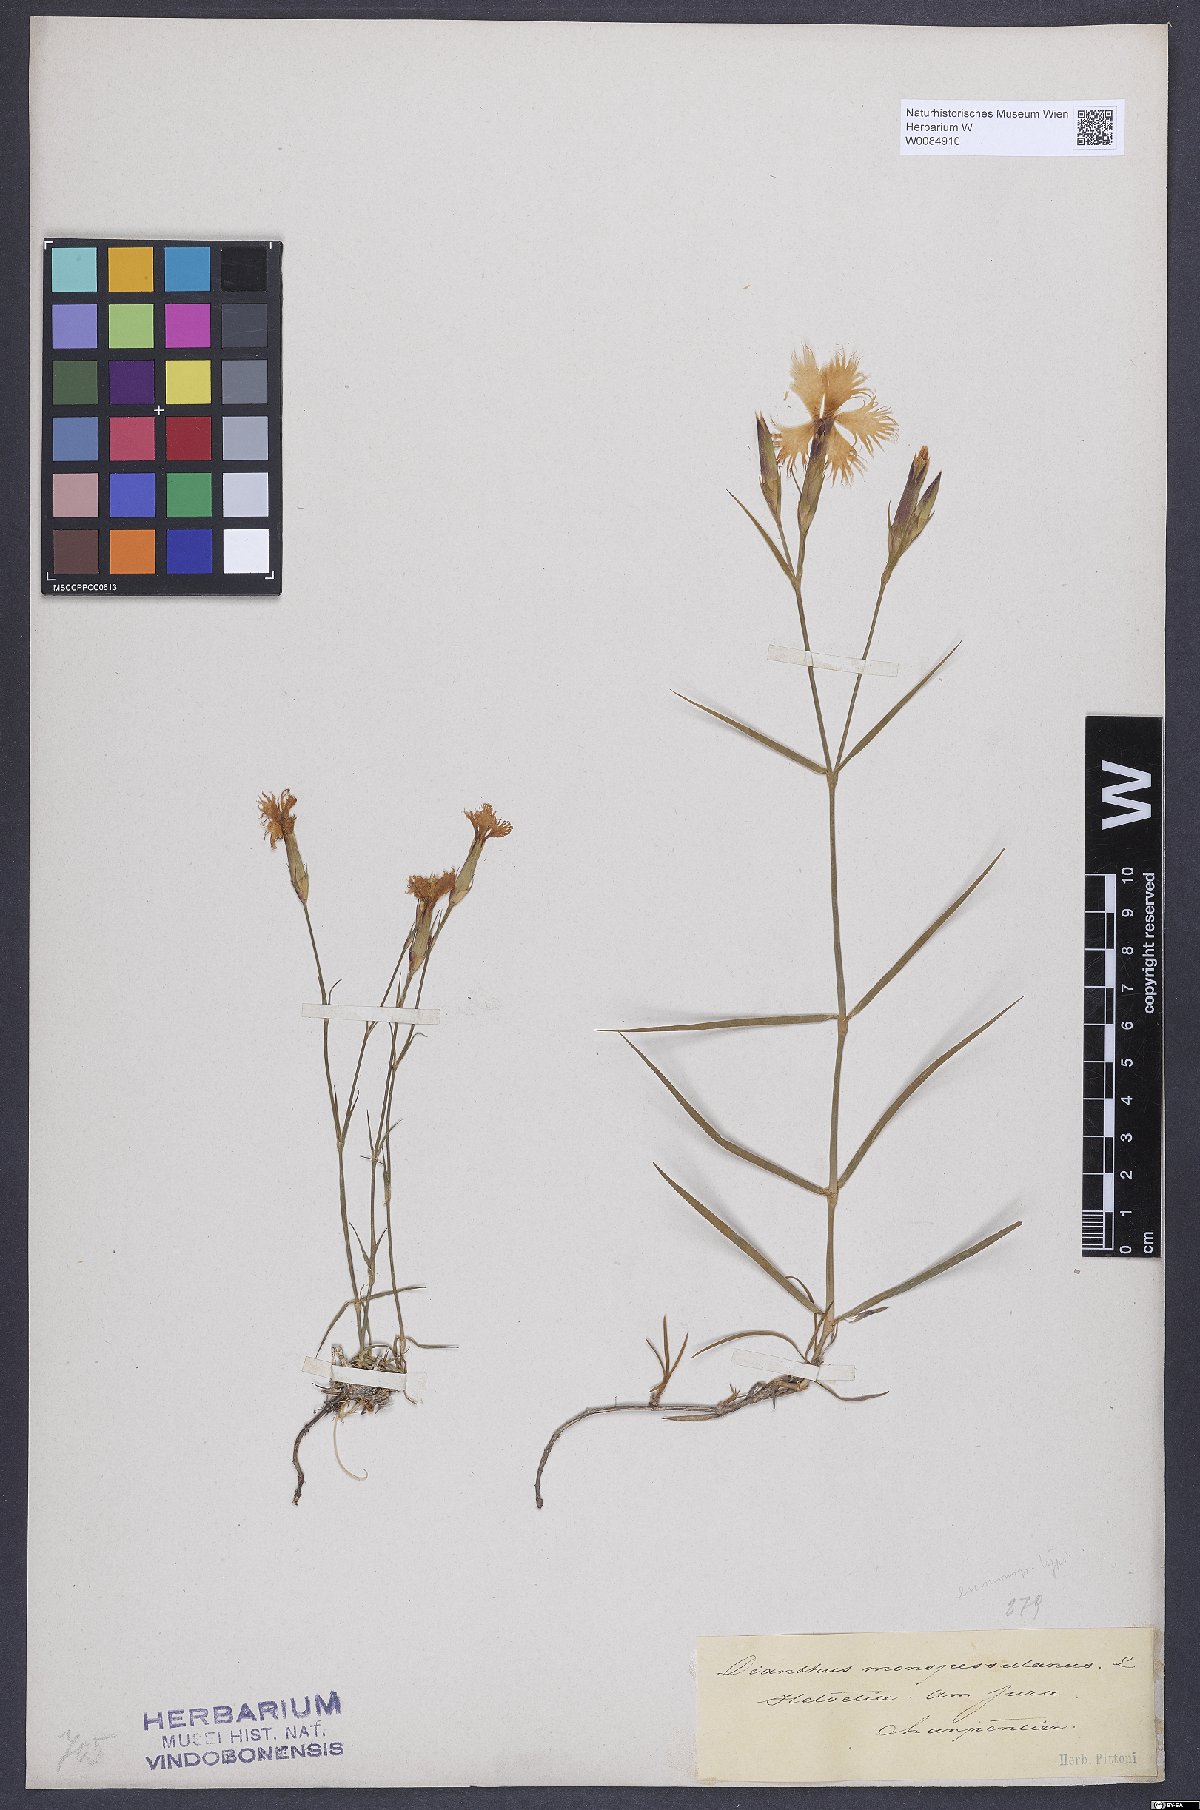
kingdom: Plantae
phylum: Tracheophyta
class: Magnoliopsida
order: Caryophyllales
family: Caryophyllaceae
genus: Dianthus
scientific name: Dianthus hyssopifolius
